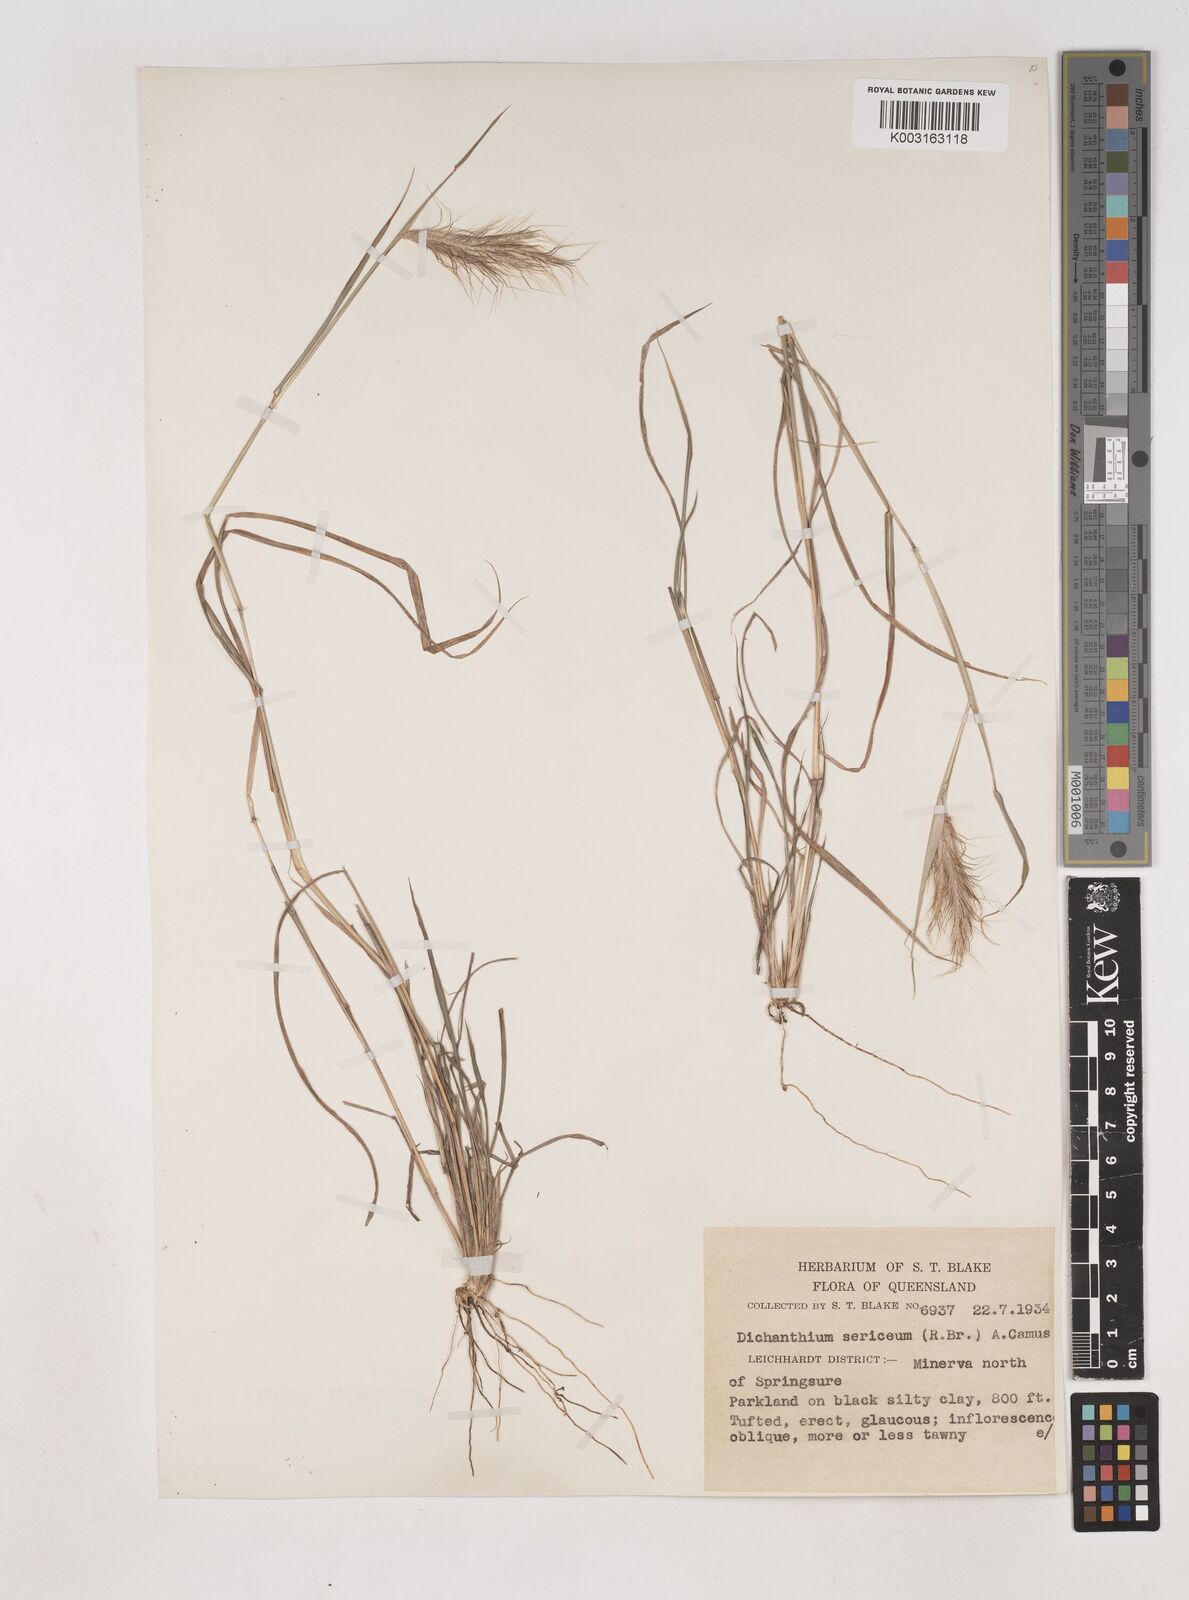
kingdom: Plantae
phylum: Tracheophyta
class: Liliopsida
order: Poales
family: Poaceae
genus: Dichanthium
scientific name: Dichanthium sericeum
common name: Silky bluestem
